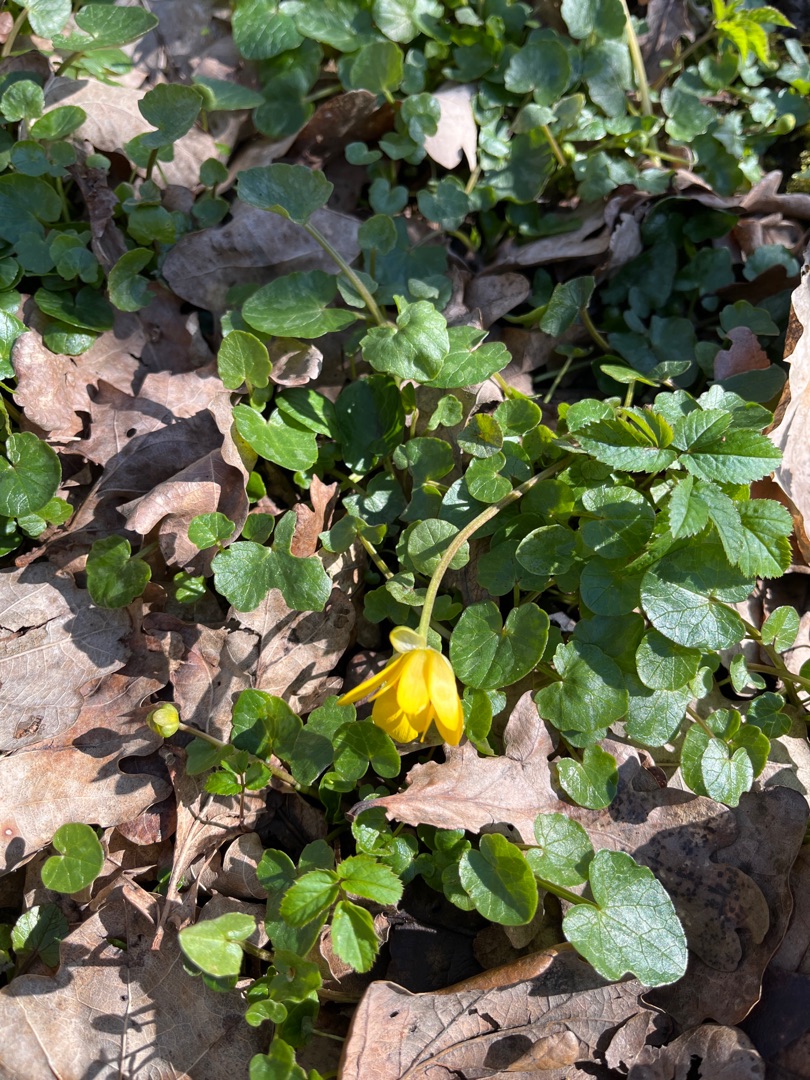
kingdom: Plantae
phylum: Tracheophyta
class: Magnoliopsida
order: Ranunculales
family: Ranunculaceae
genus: Ficaria
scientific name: Ficaria verna
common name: Vorterod
